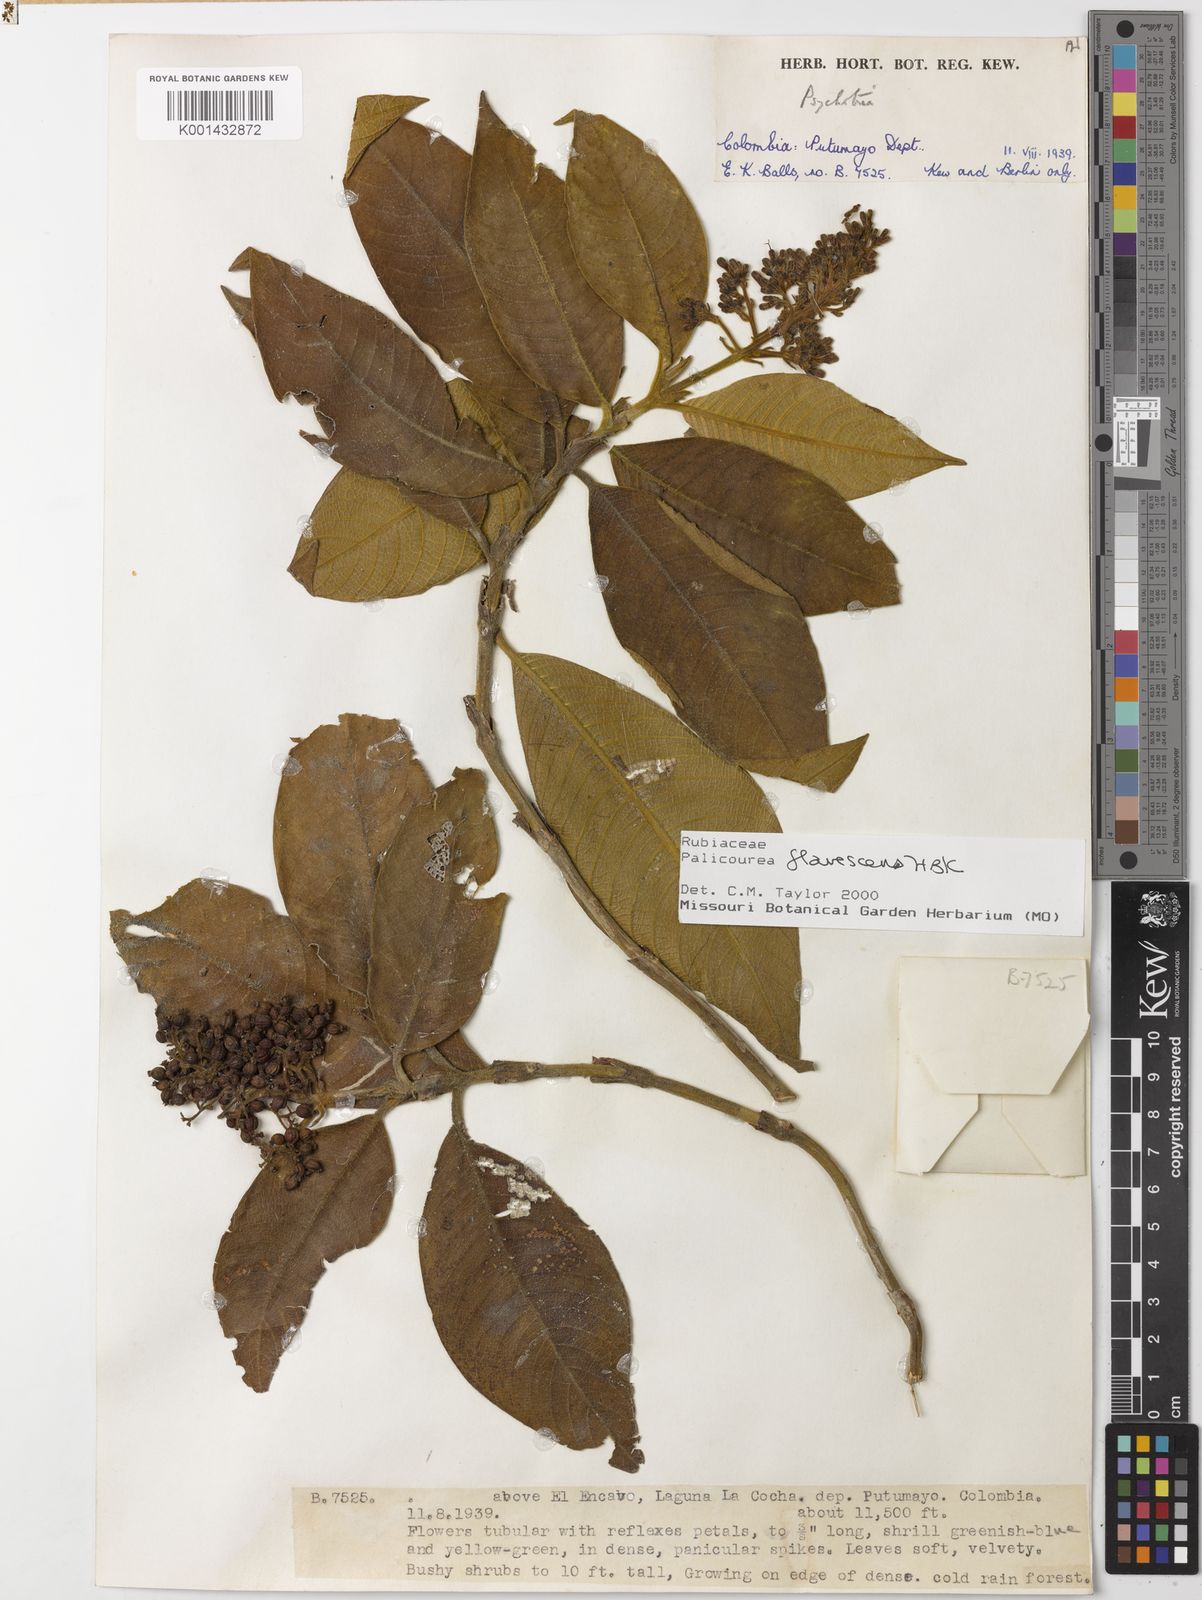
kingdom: Plantae
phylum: Tracheophyta
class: Magnoliopsida
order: Gentianales
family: Rubiaceae
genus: Palicourea
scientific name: Palicourea flavescens
